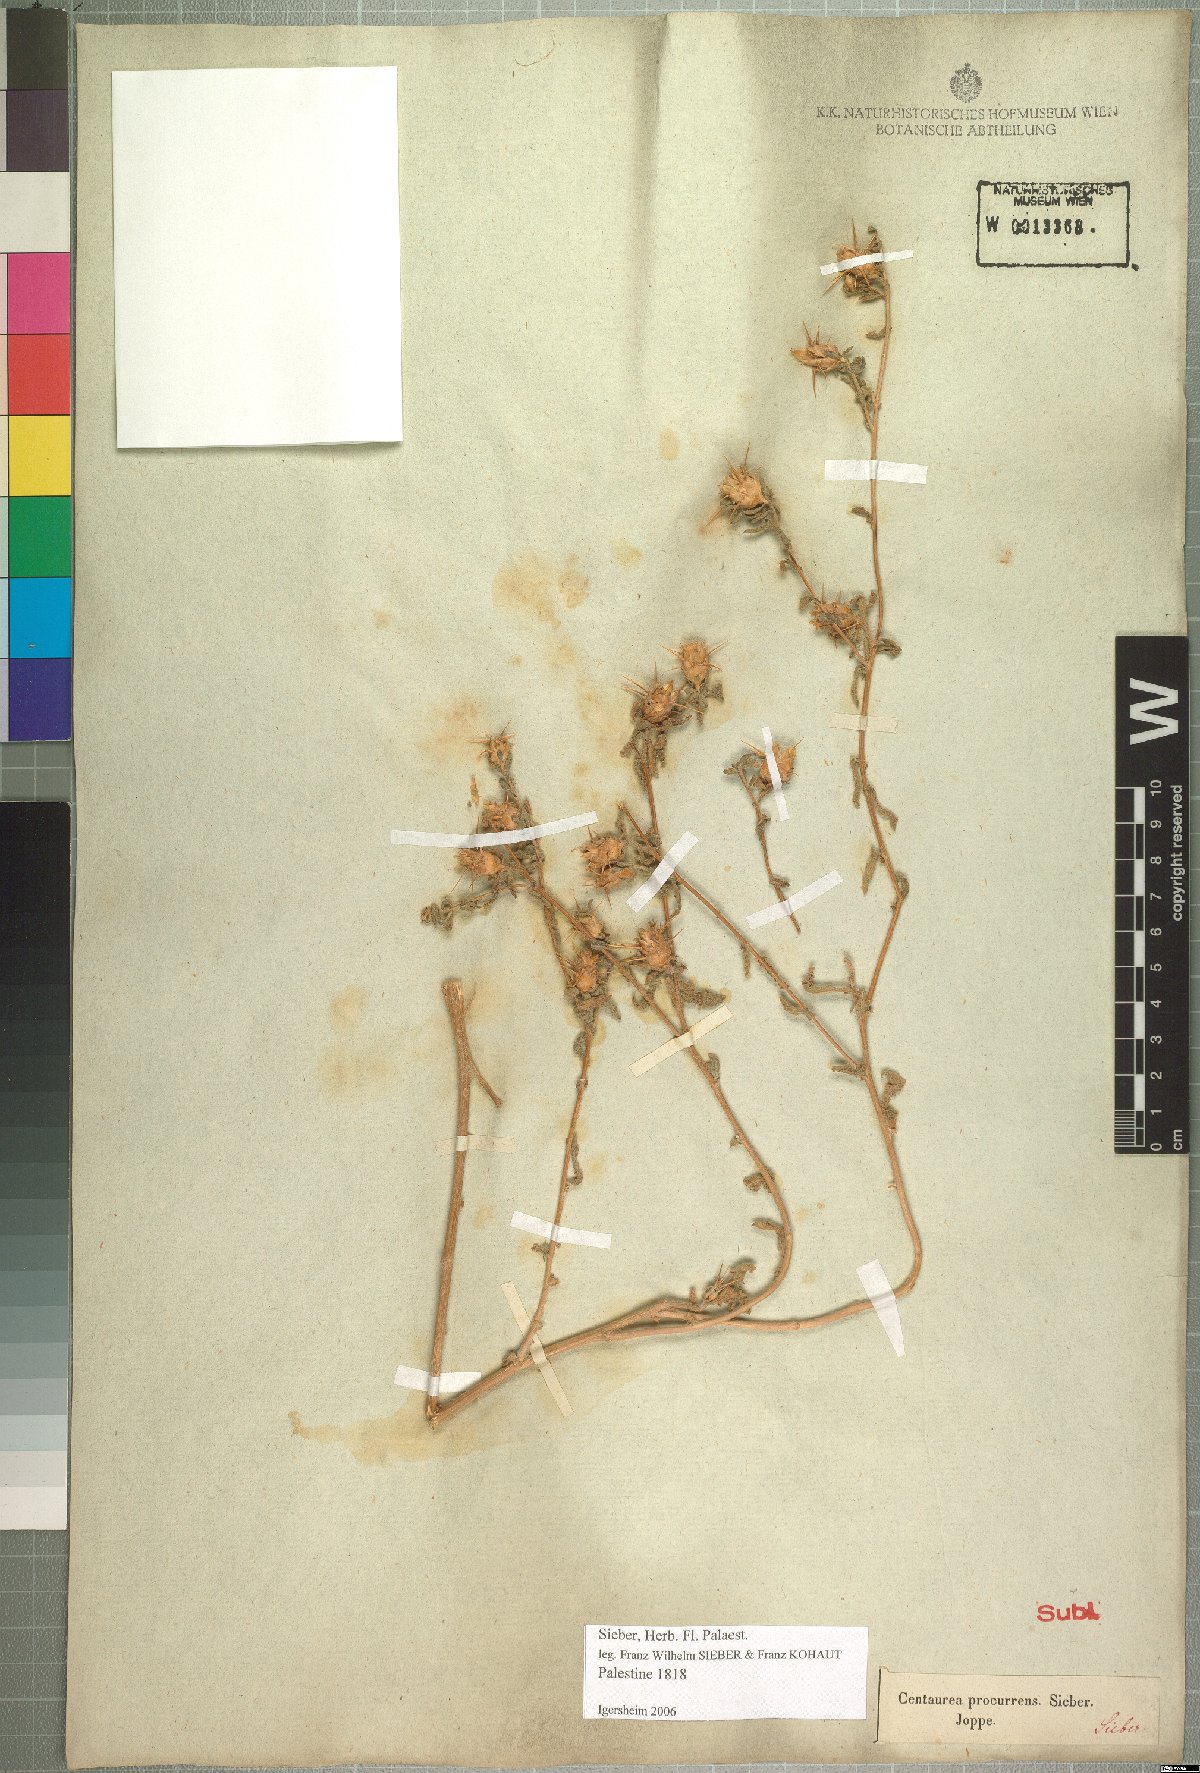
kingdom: Plantae
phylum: Tracheophyta
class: Magnoliopsida
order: Asterales
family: Asteraceae
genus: Centaurea
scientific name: Centaurea procurrens
